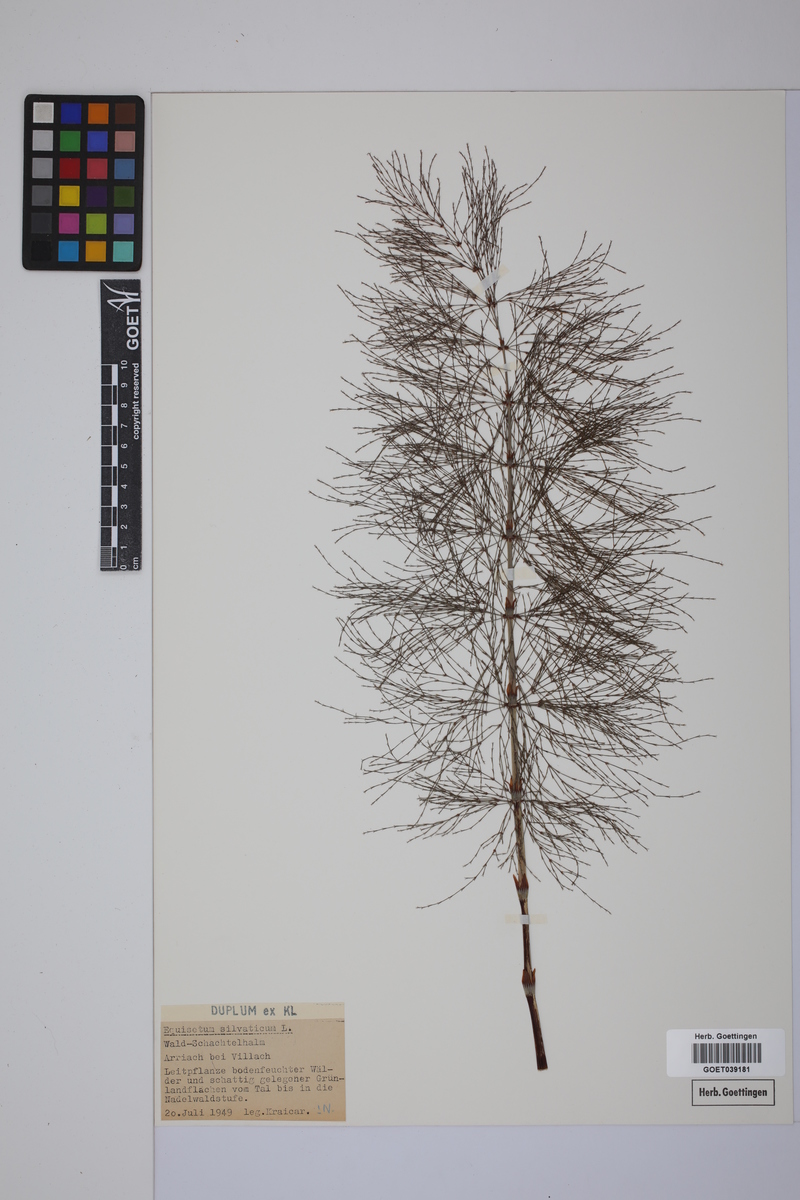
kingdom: Plantae
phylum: Tracheophyta
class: Polypodiopsida
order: Equisetales
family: Equisetaceae
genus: Equisetum
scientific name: Equisetum sylvaticum
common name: Wood horsetail
